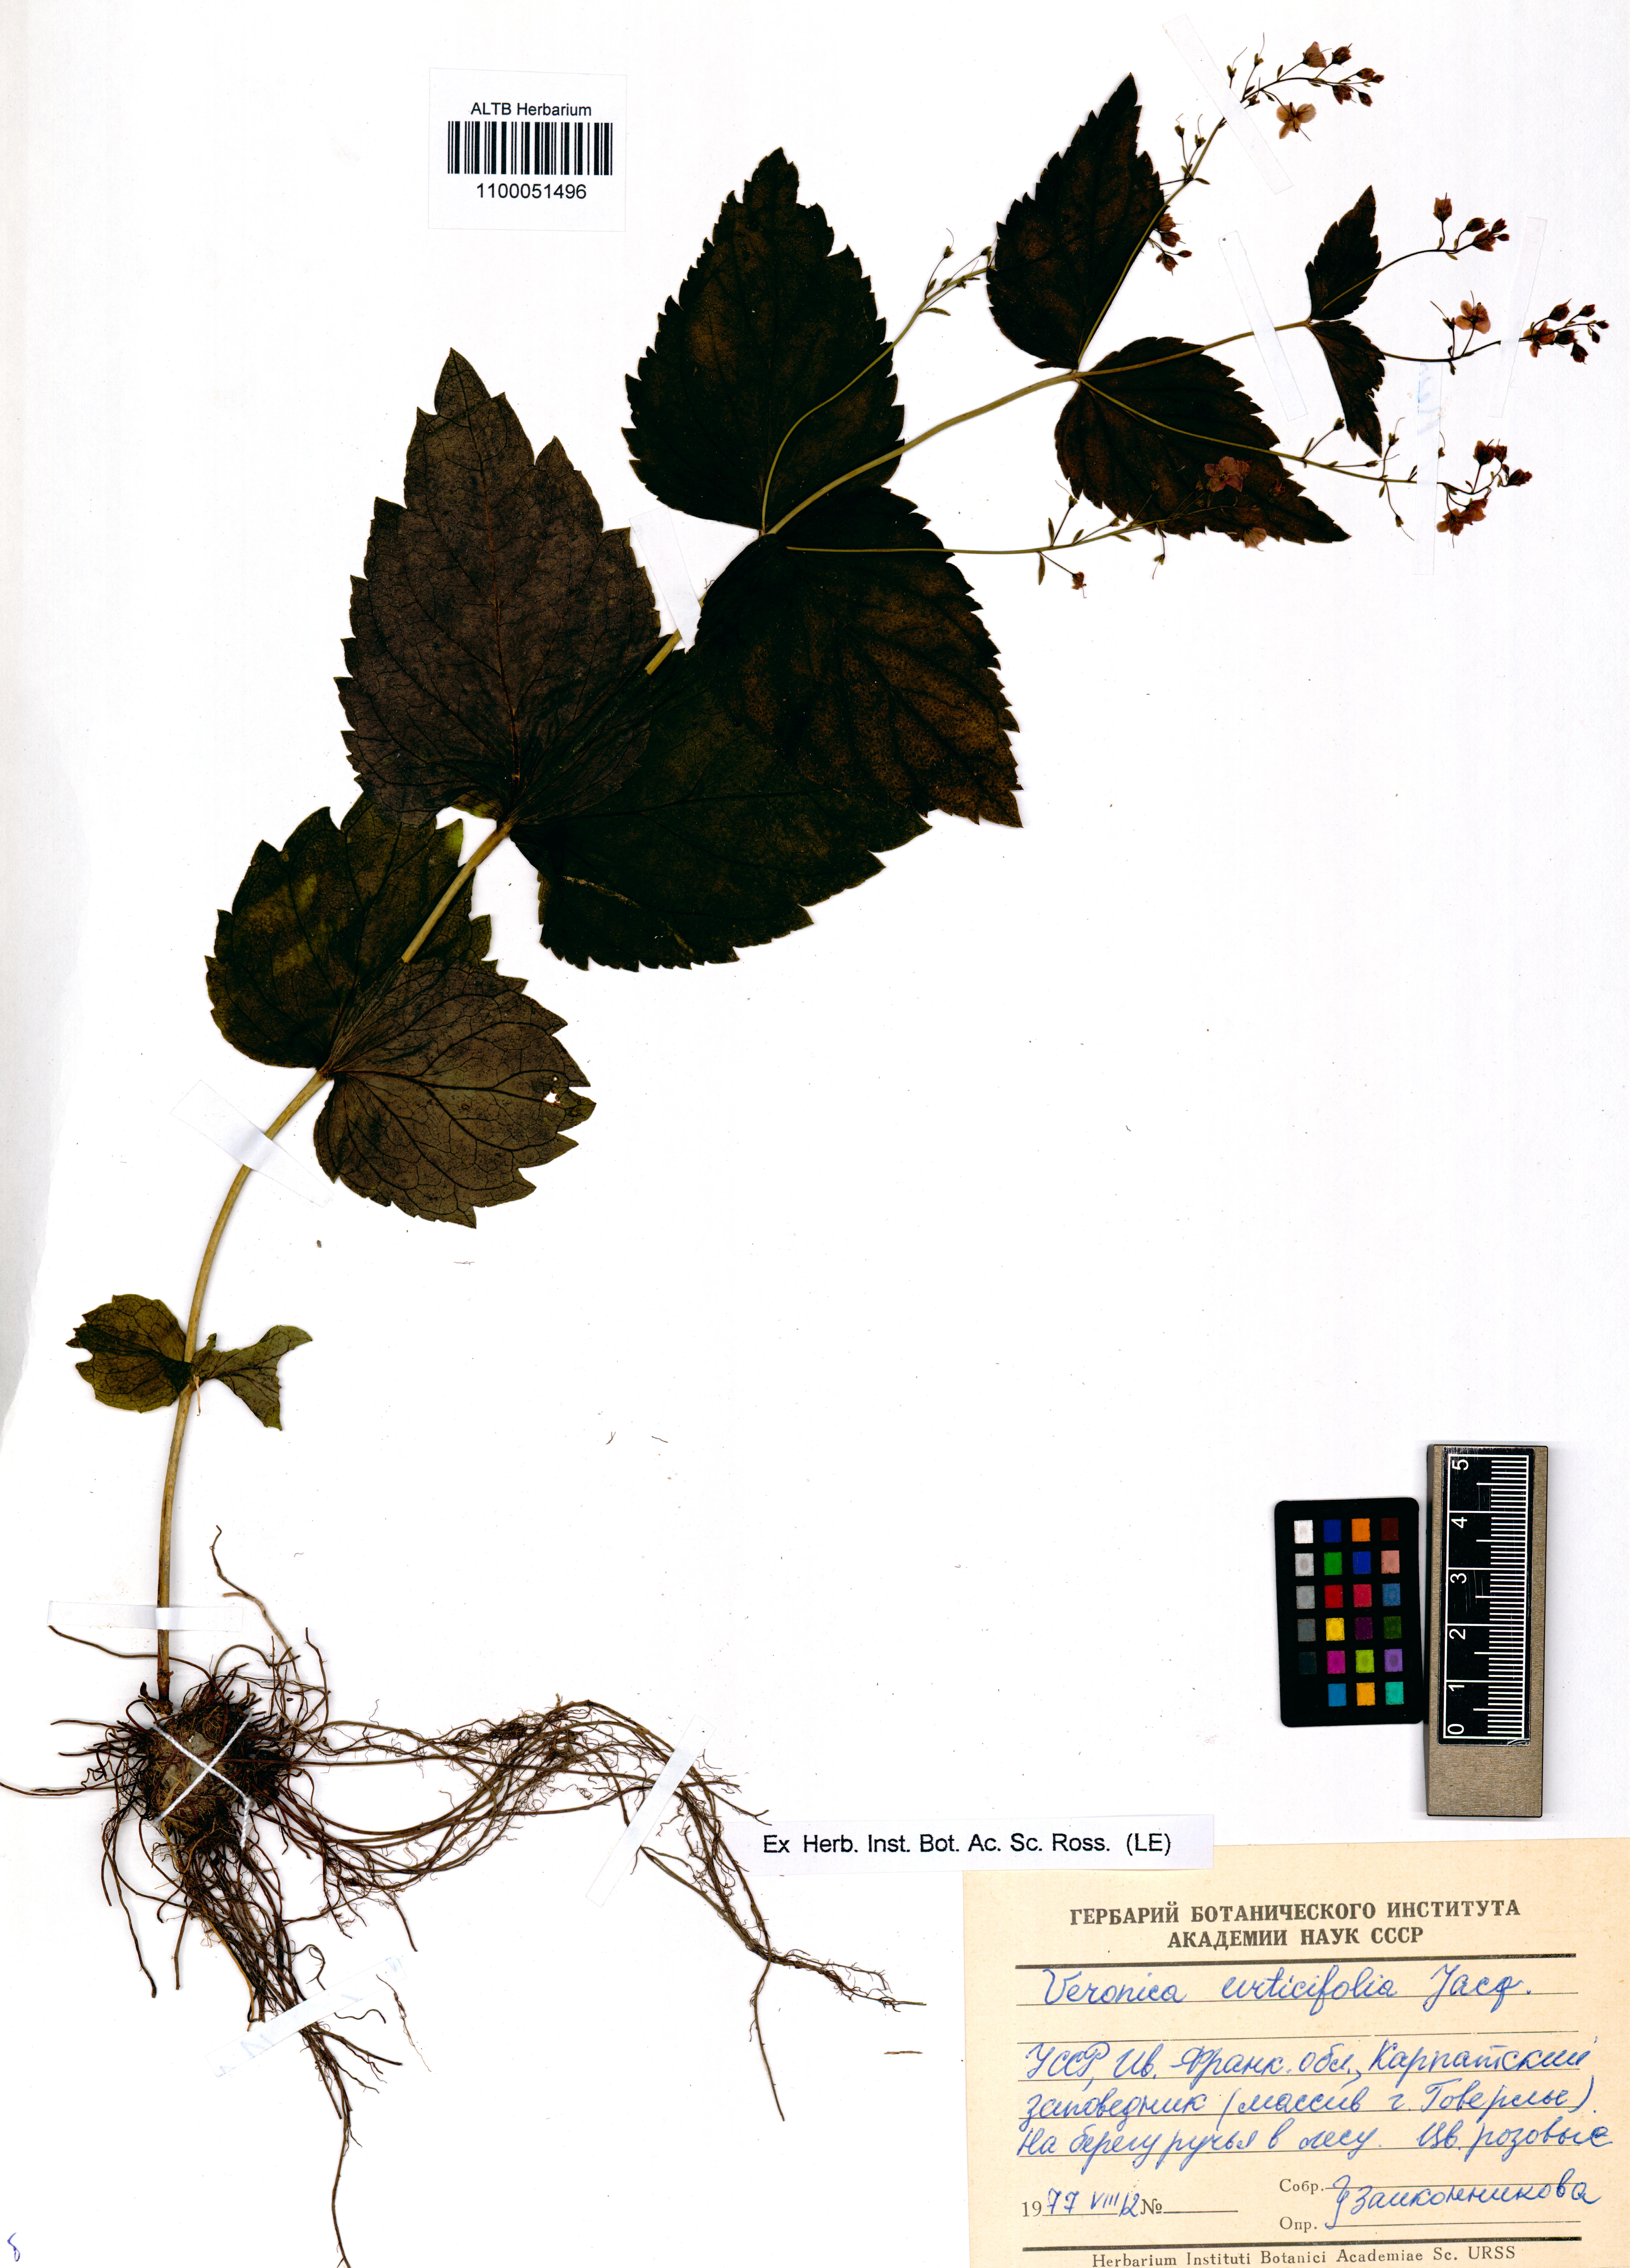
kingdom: Plantae
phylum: Tracheophyta
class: Magnoliopsida
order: Lamiales
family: Plantaginaceae
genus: Veronica
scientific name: Veronica urticifolia
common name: Nettle-leaf speedwell
